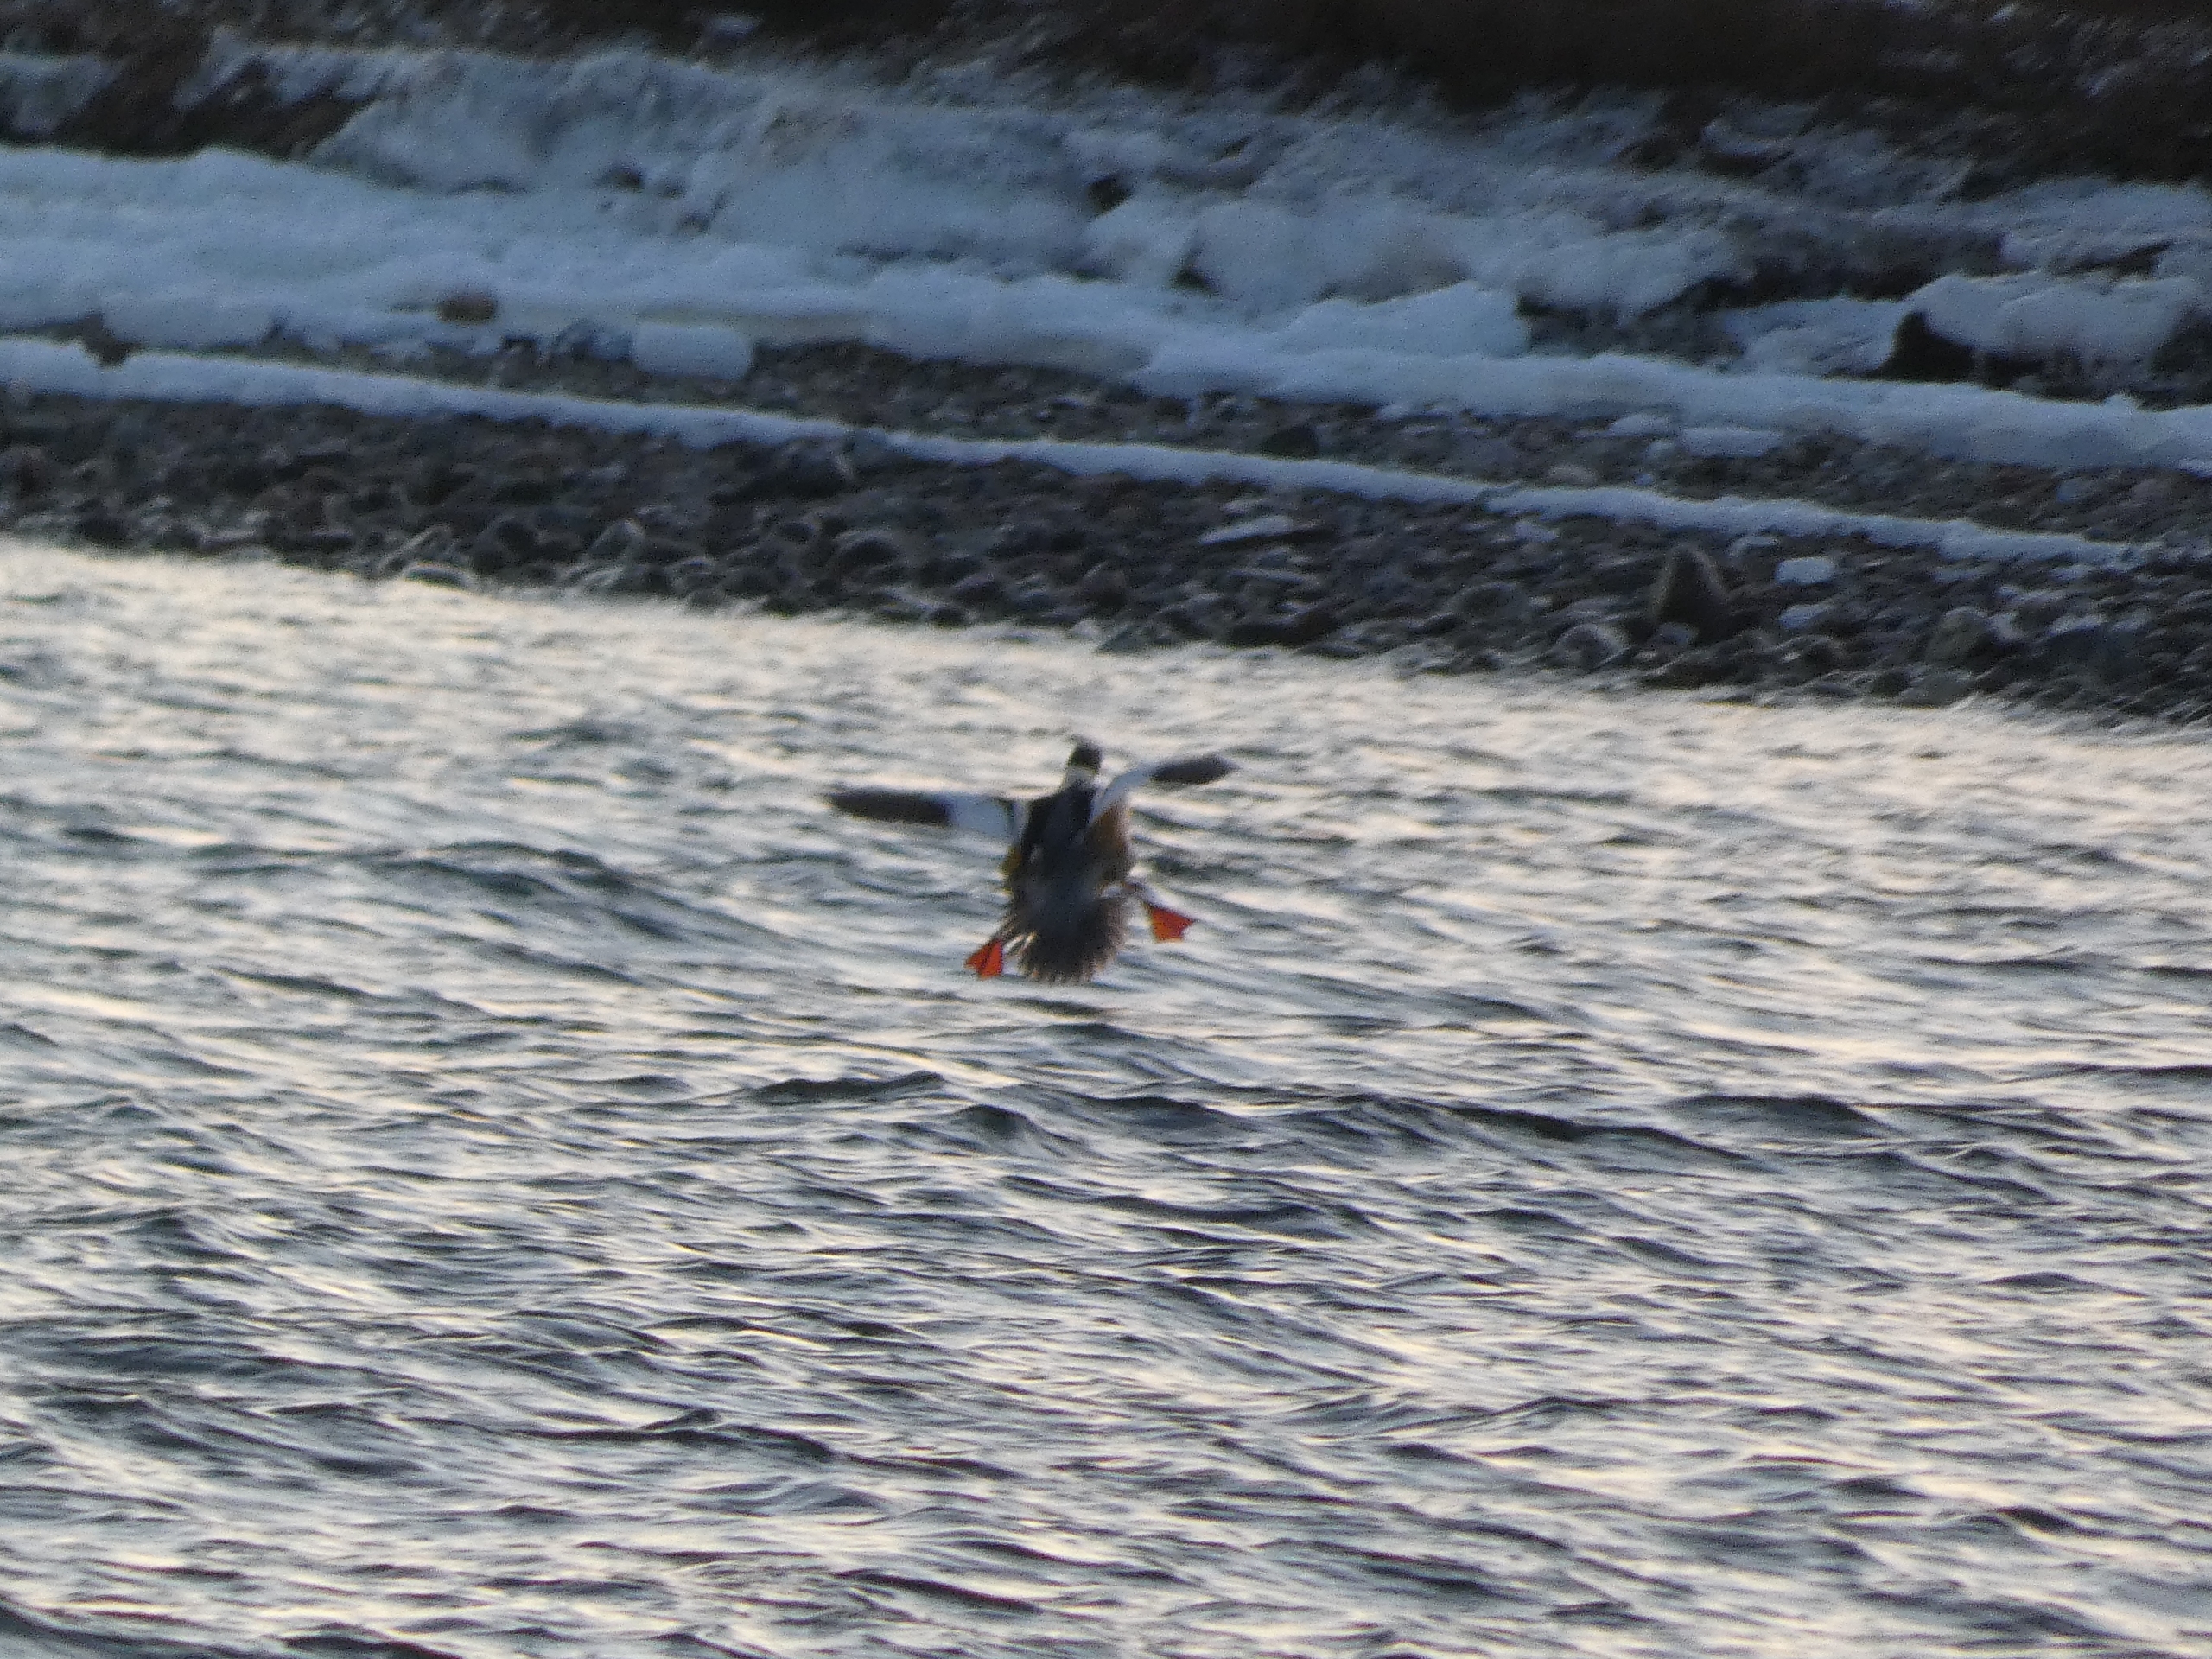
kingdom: Animalia
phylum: Chordata
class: Aves
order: Anseriformes
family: Anatidae
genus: Mergus
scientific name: Mergus merganser
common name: Stor skallesluger
